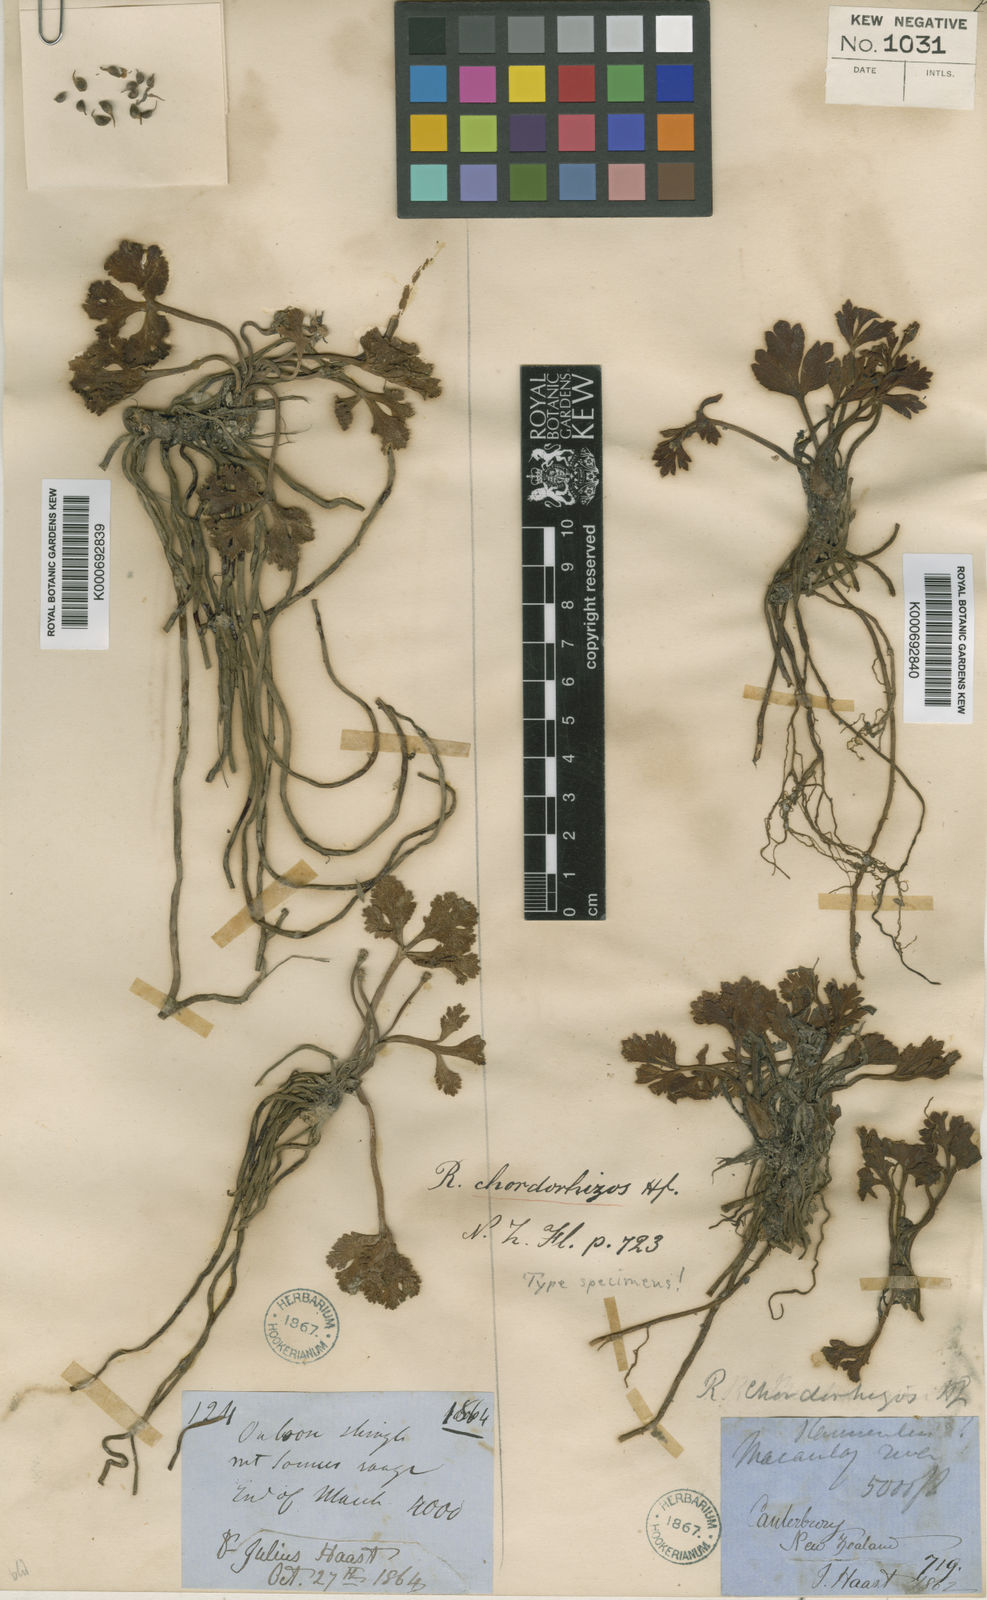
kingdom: Plantae
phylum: Tracheophyta
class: Magnoliopsida
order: Ranunculales
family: Ranunculaceae
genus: Ranunculus
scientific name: Ranunculus crithmifolius
